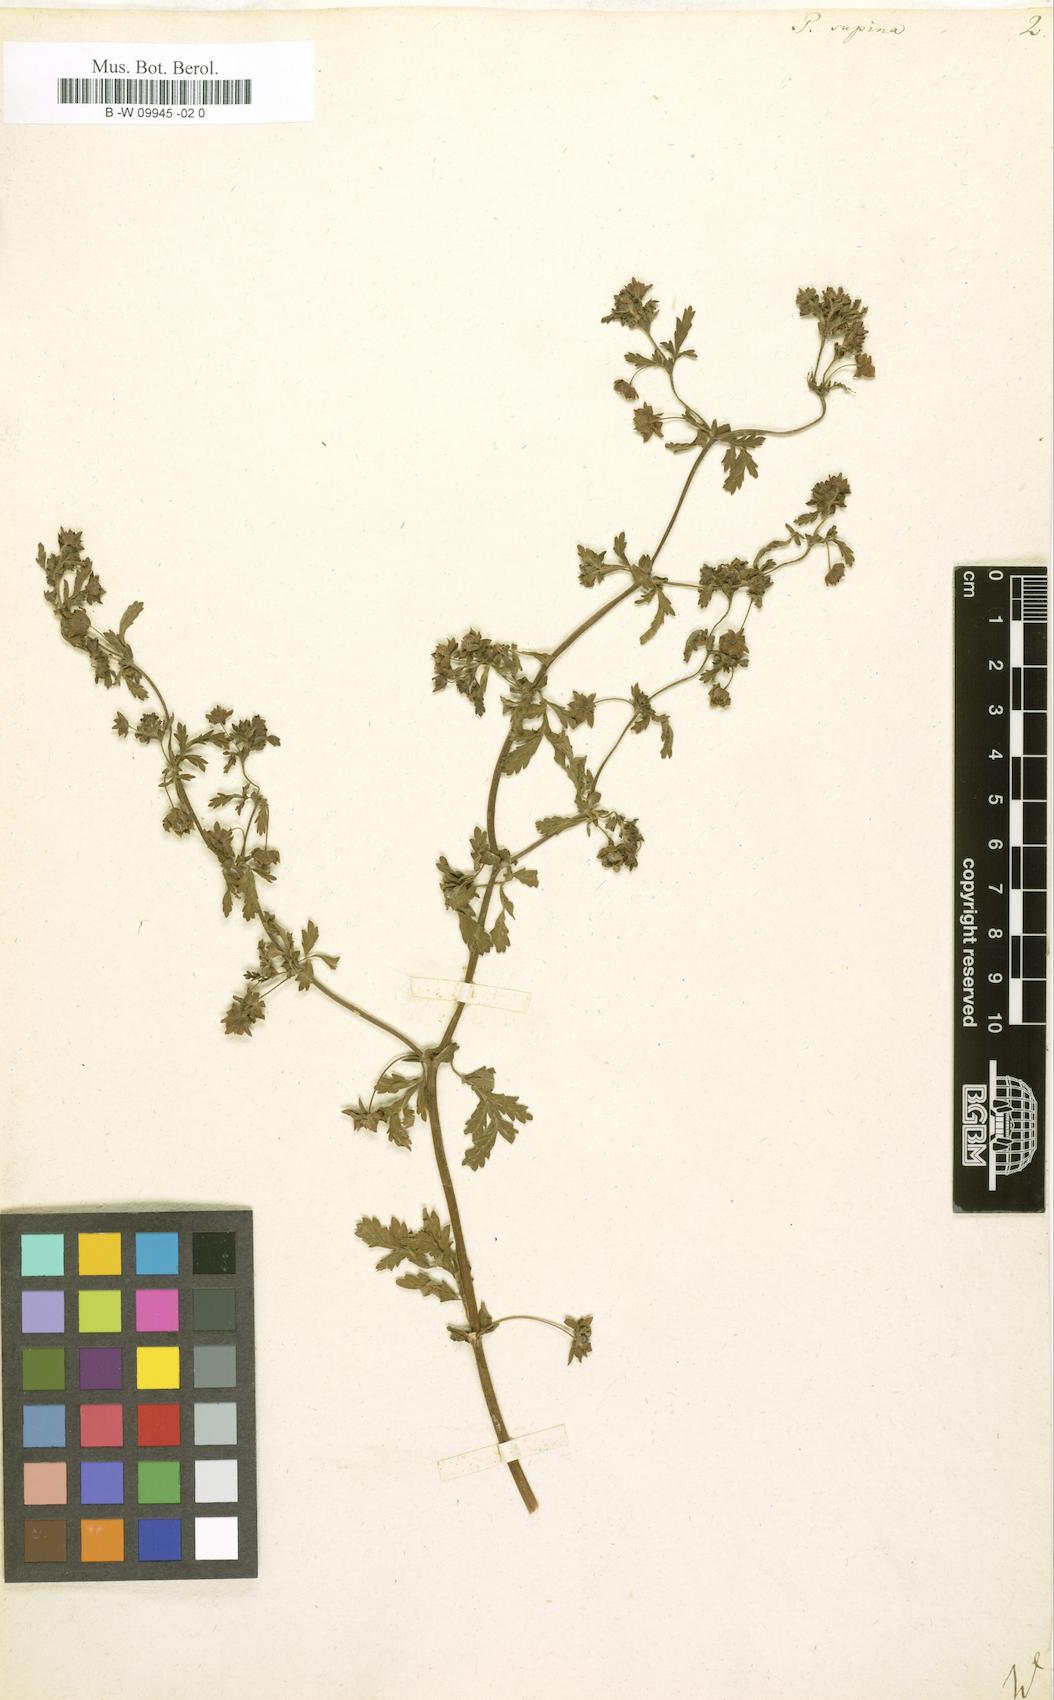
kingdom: Plantae
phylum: Tracheophyta
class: Magnoliopsida
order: Rosales
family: Rosaceae
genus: Potentilla
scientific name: Potentilla supina
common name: Prostrate cinquefoil
